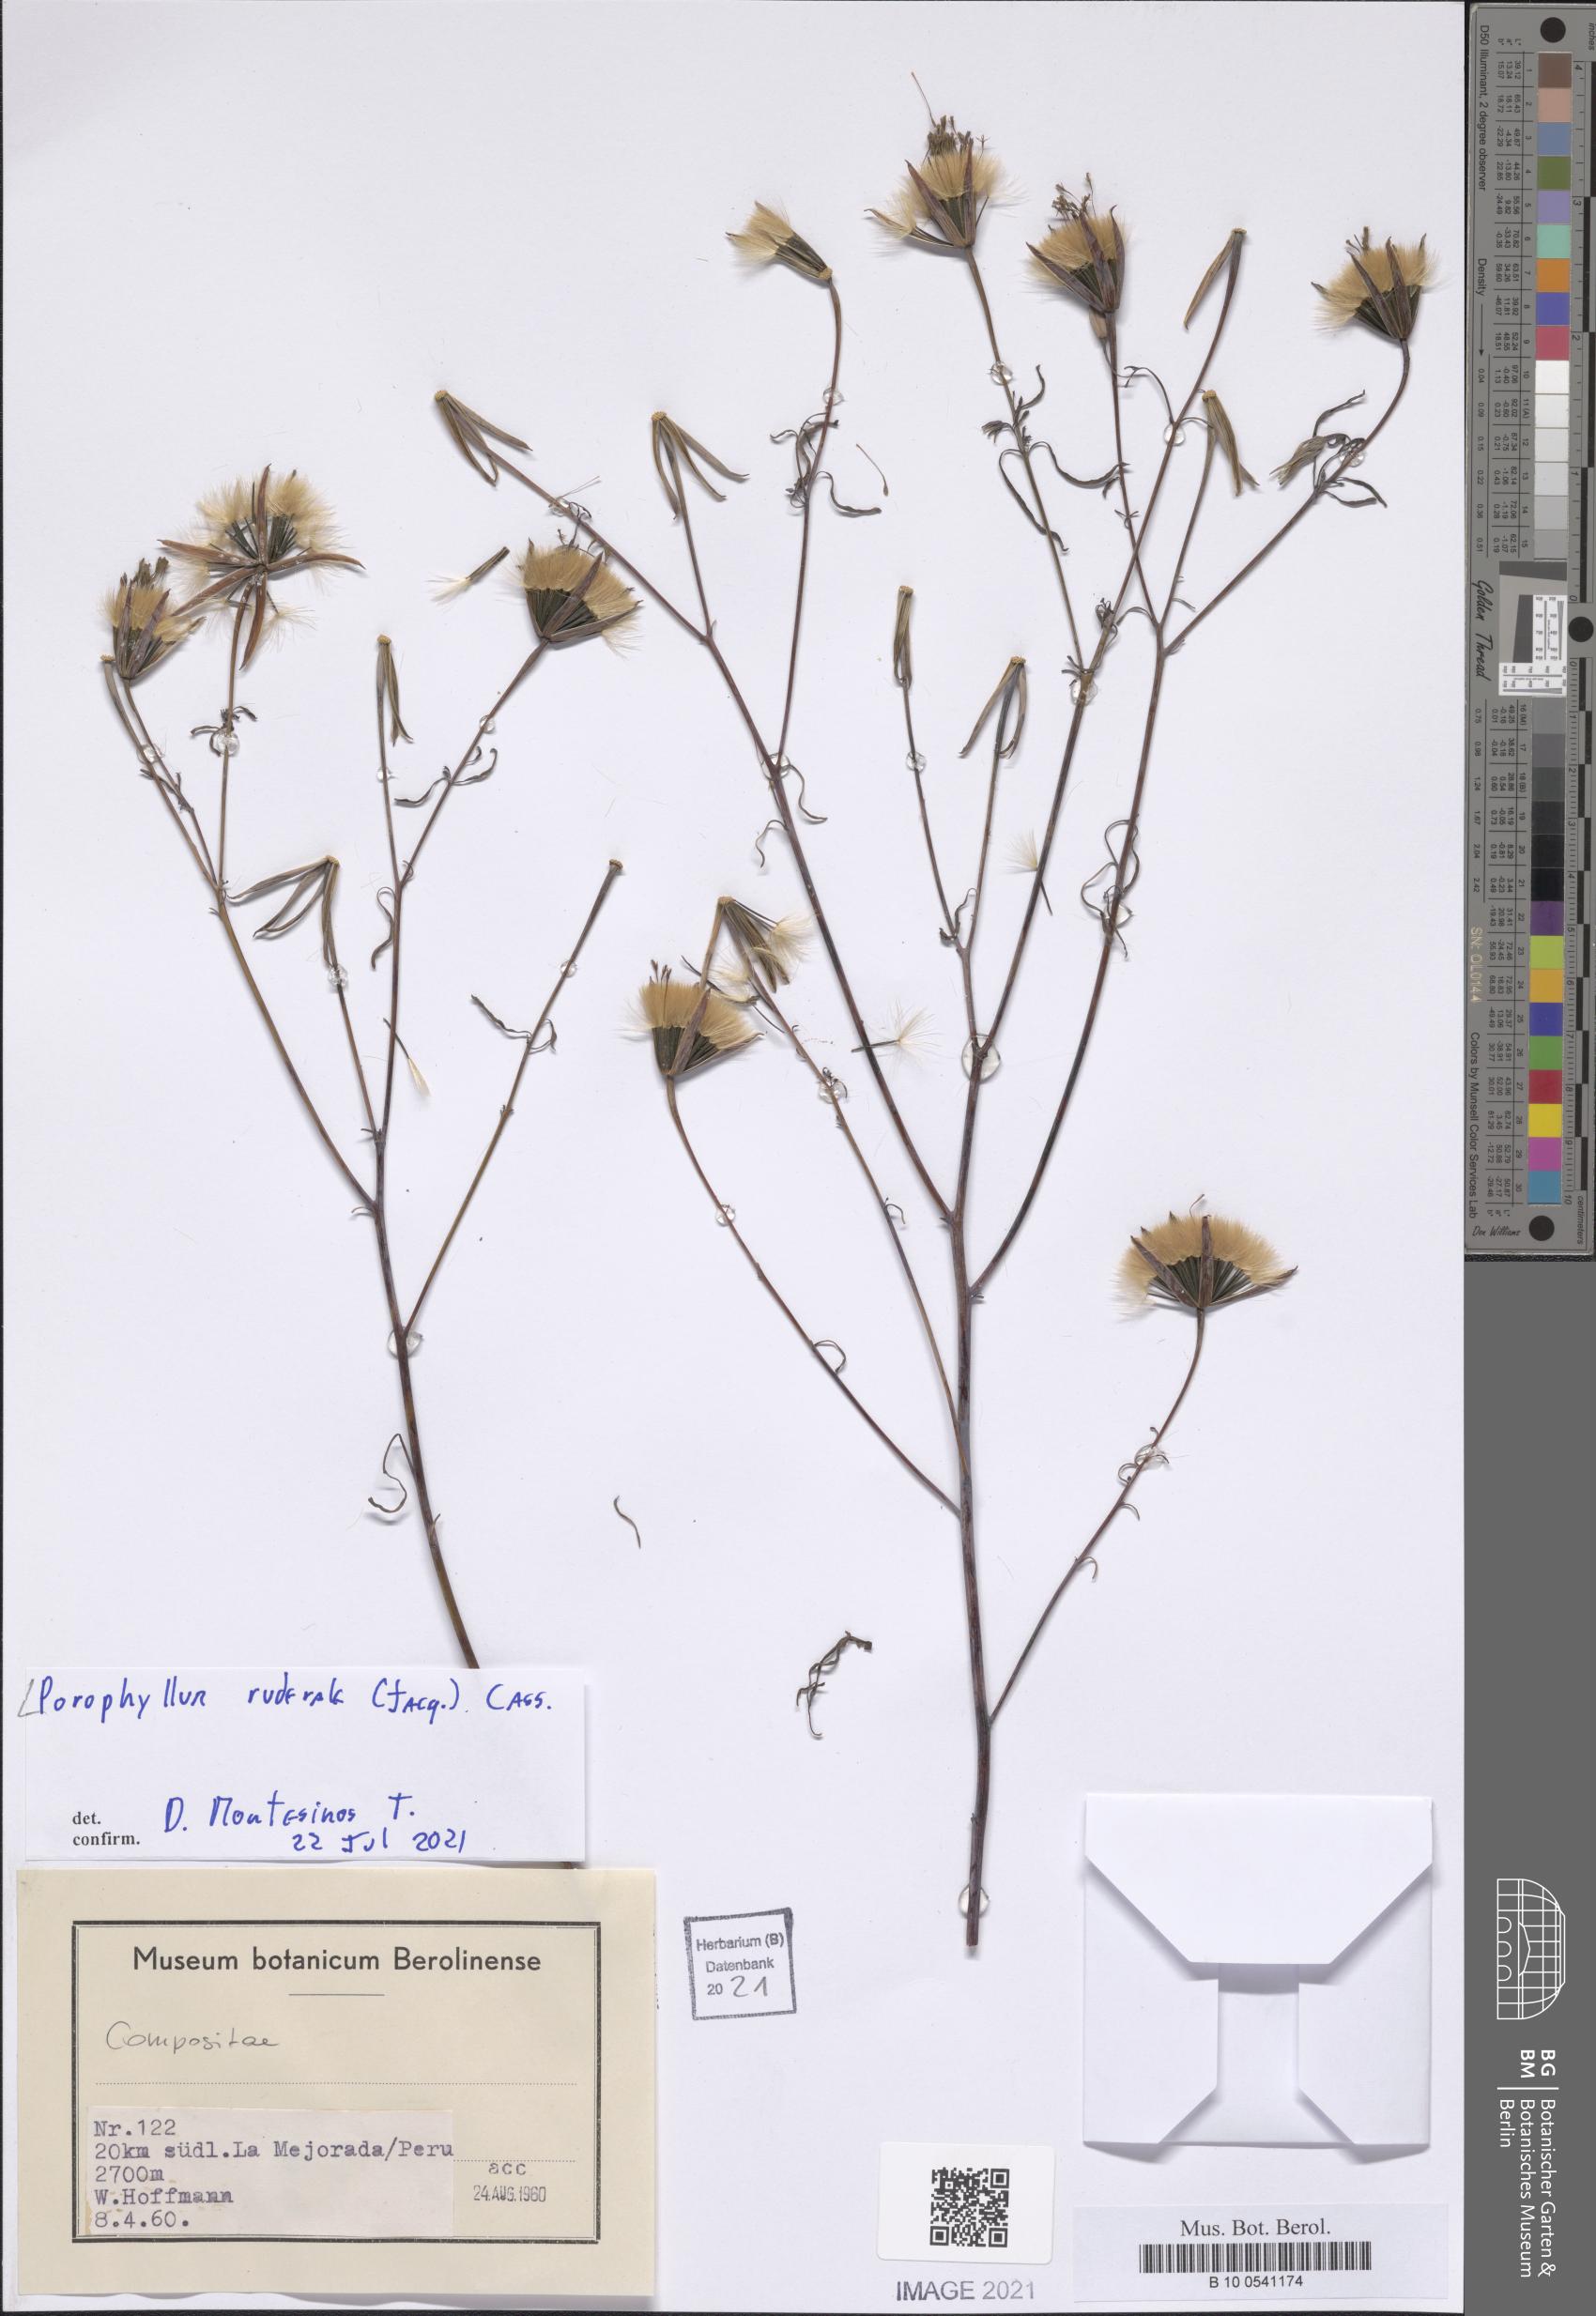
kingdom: Plantae
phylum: Tracheophyta
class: Magnoliopsida
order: Asterales
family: Asteraceae
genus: Porophyllum
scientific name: Porophyllum ruderale
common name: Yerba porosa
